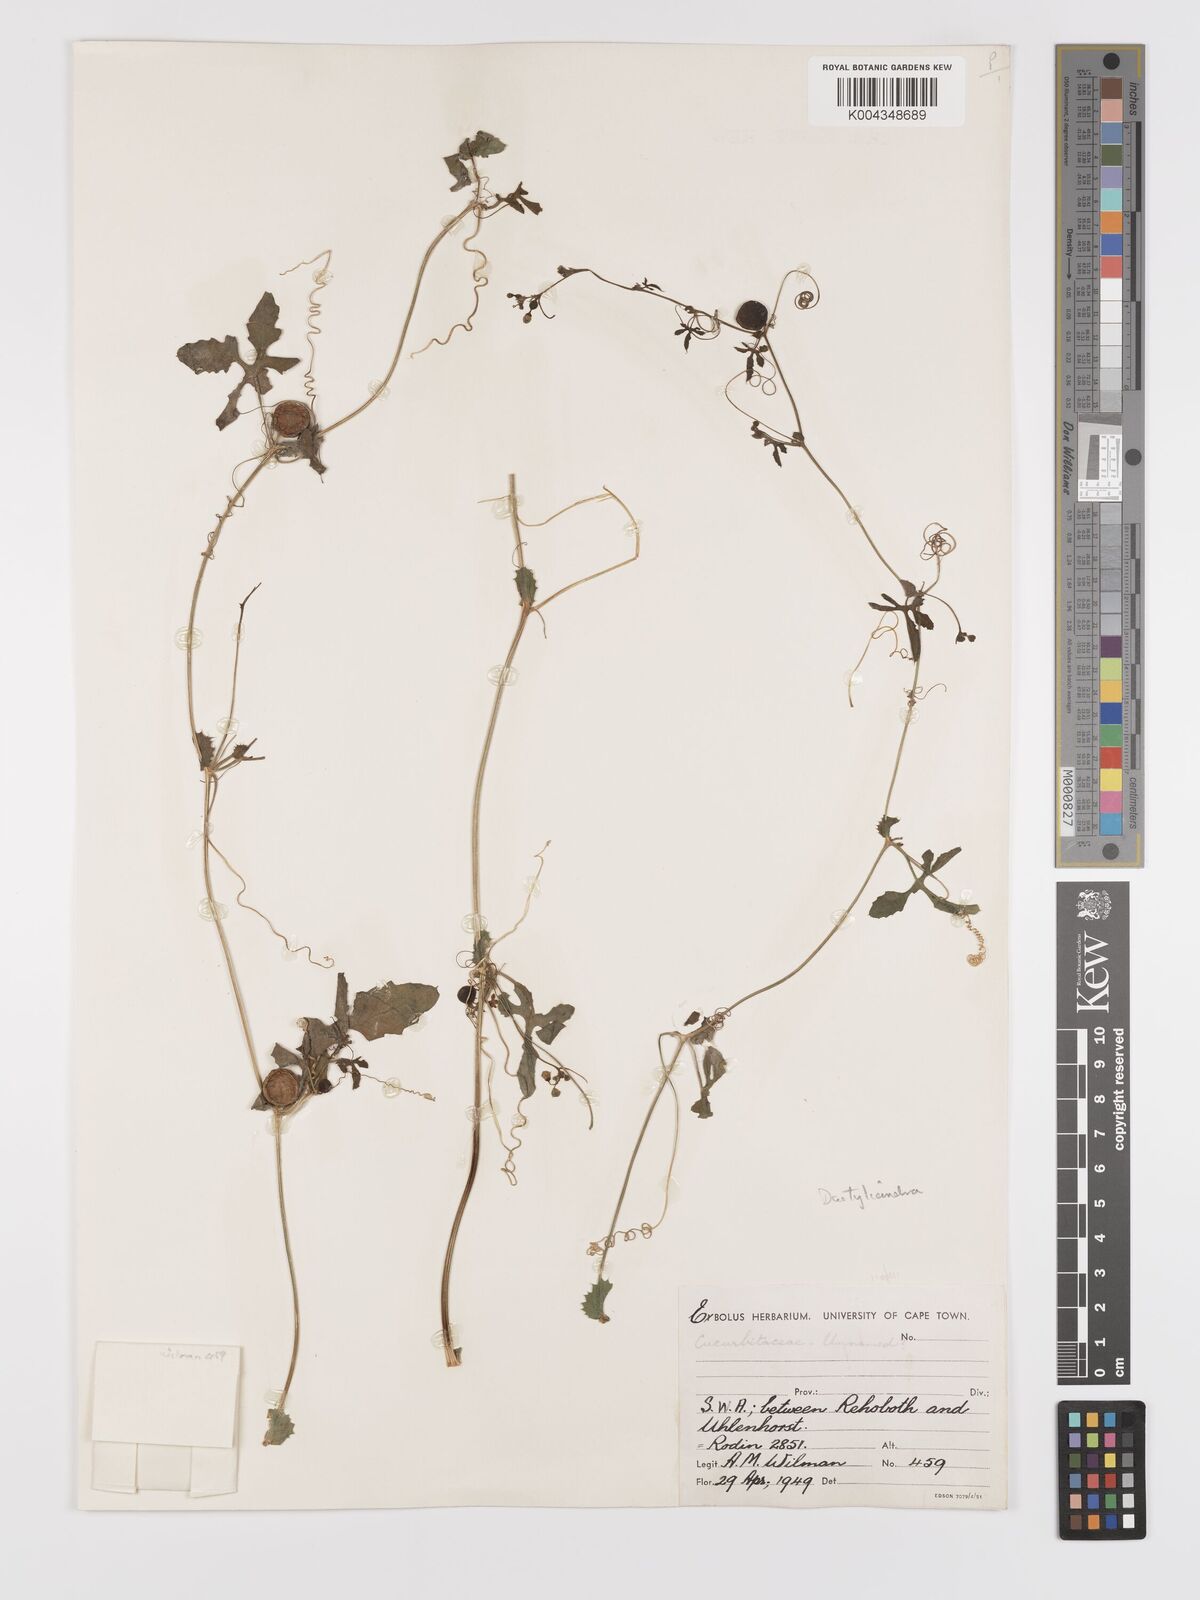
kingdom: Plantae
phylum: Tracheophyta
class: Magnoliopsida
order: Cucurbitales
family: Cucurbitaceae
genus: Dactyliandra
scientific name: Dactyliandra welwitschii
